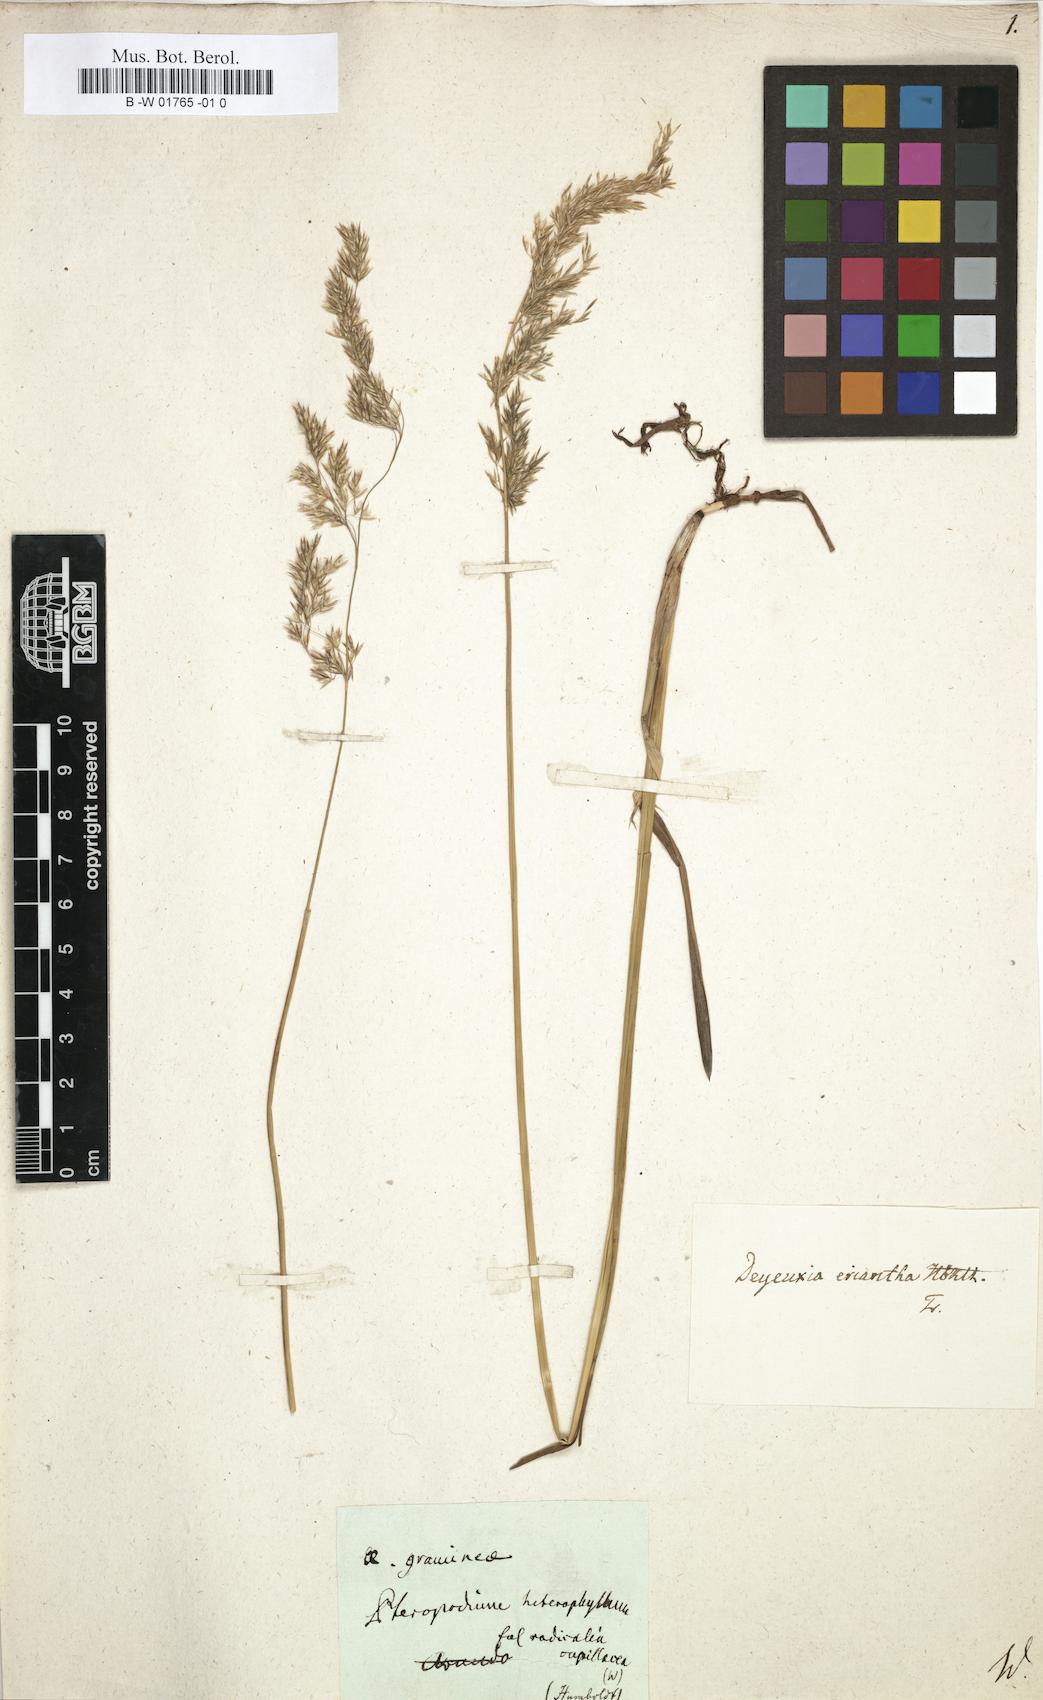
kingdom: Plantae
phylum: Tracheophyta
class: Liliopsida
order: Poales
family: Poaceae
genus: Peyritschia
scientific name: Peyritschia eriantha
